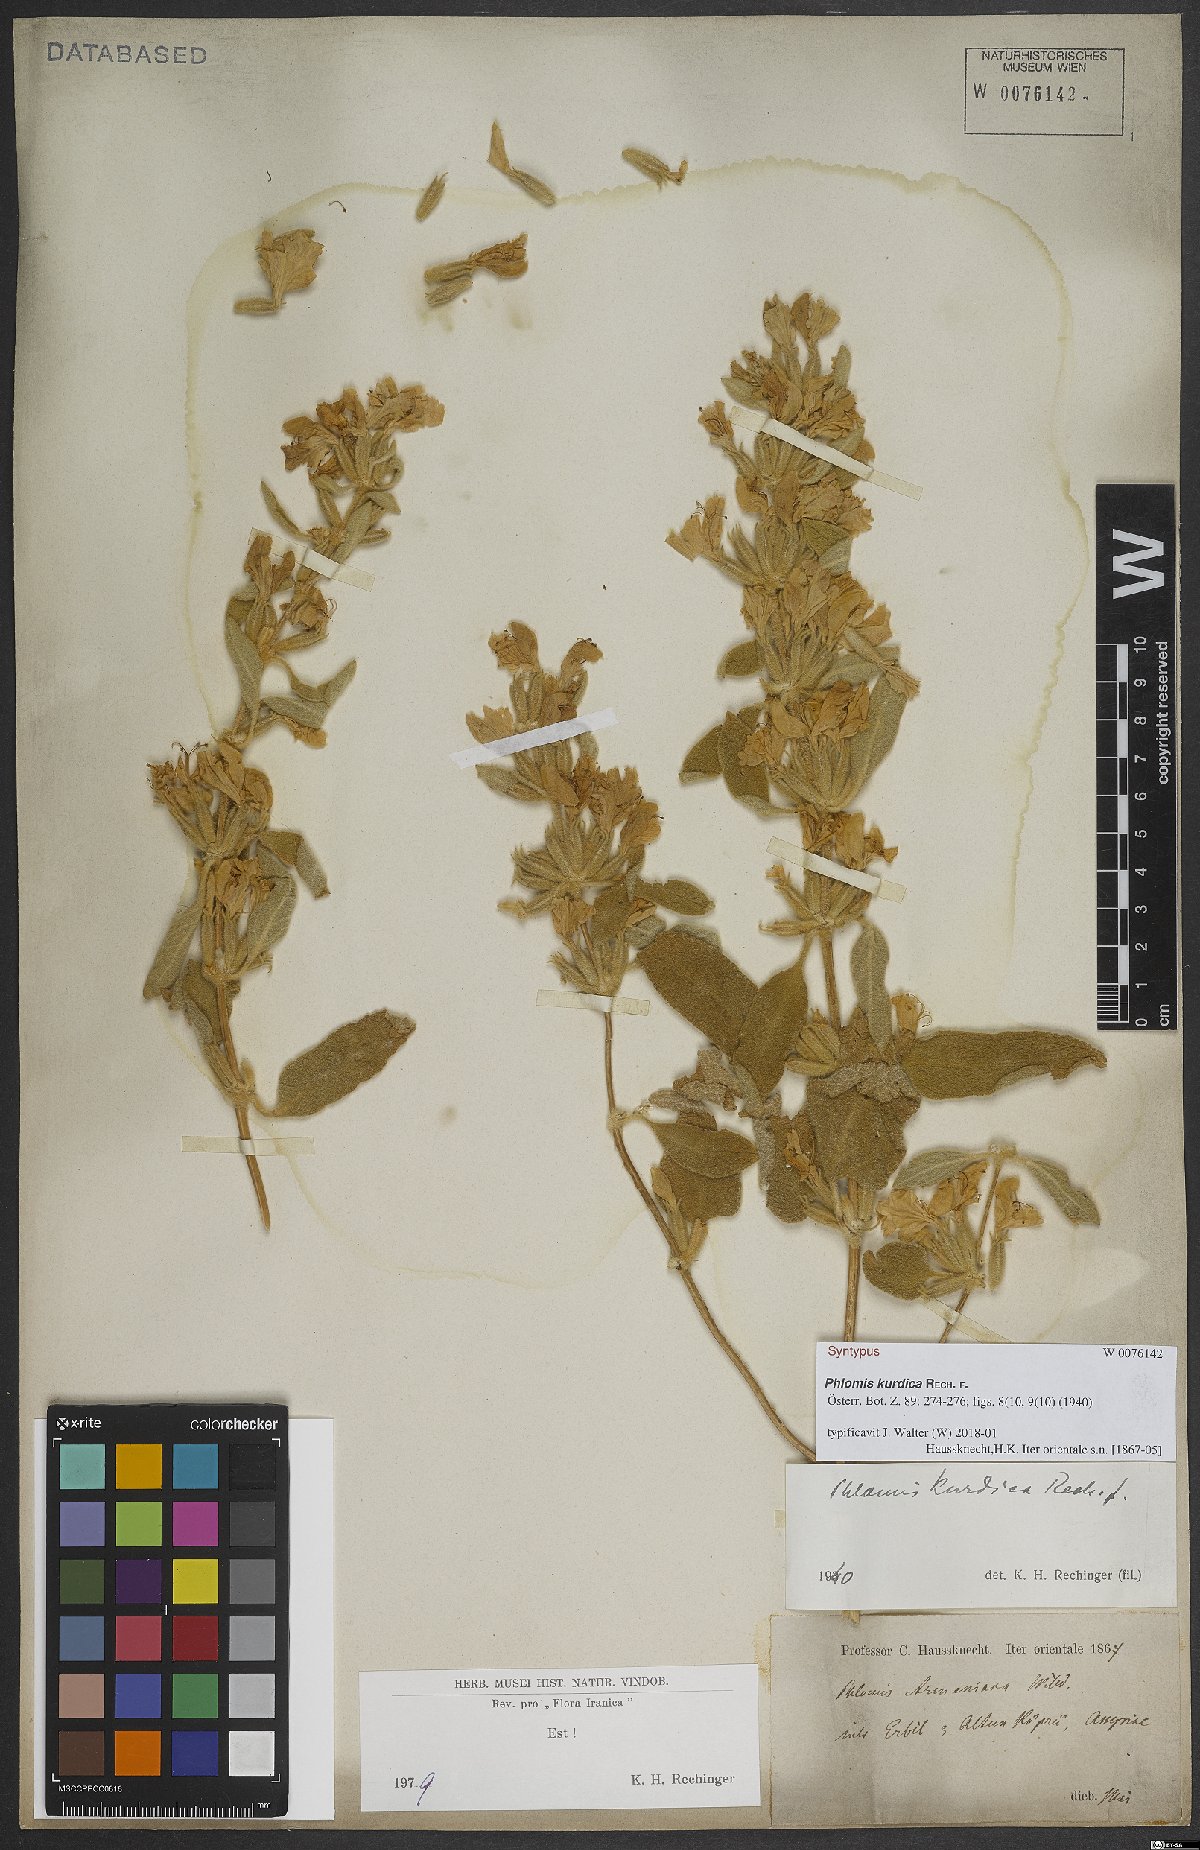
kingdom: Plantae
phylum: Tracheophyta
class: Magnoliopsida
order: Lamiales
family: Lamiaceae
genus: Phlomis
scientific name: Phlomis kurdica
